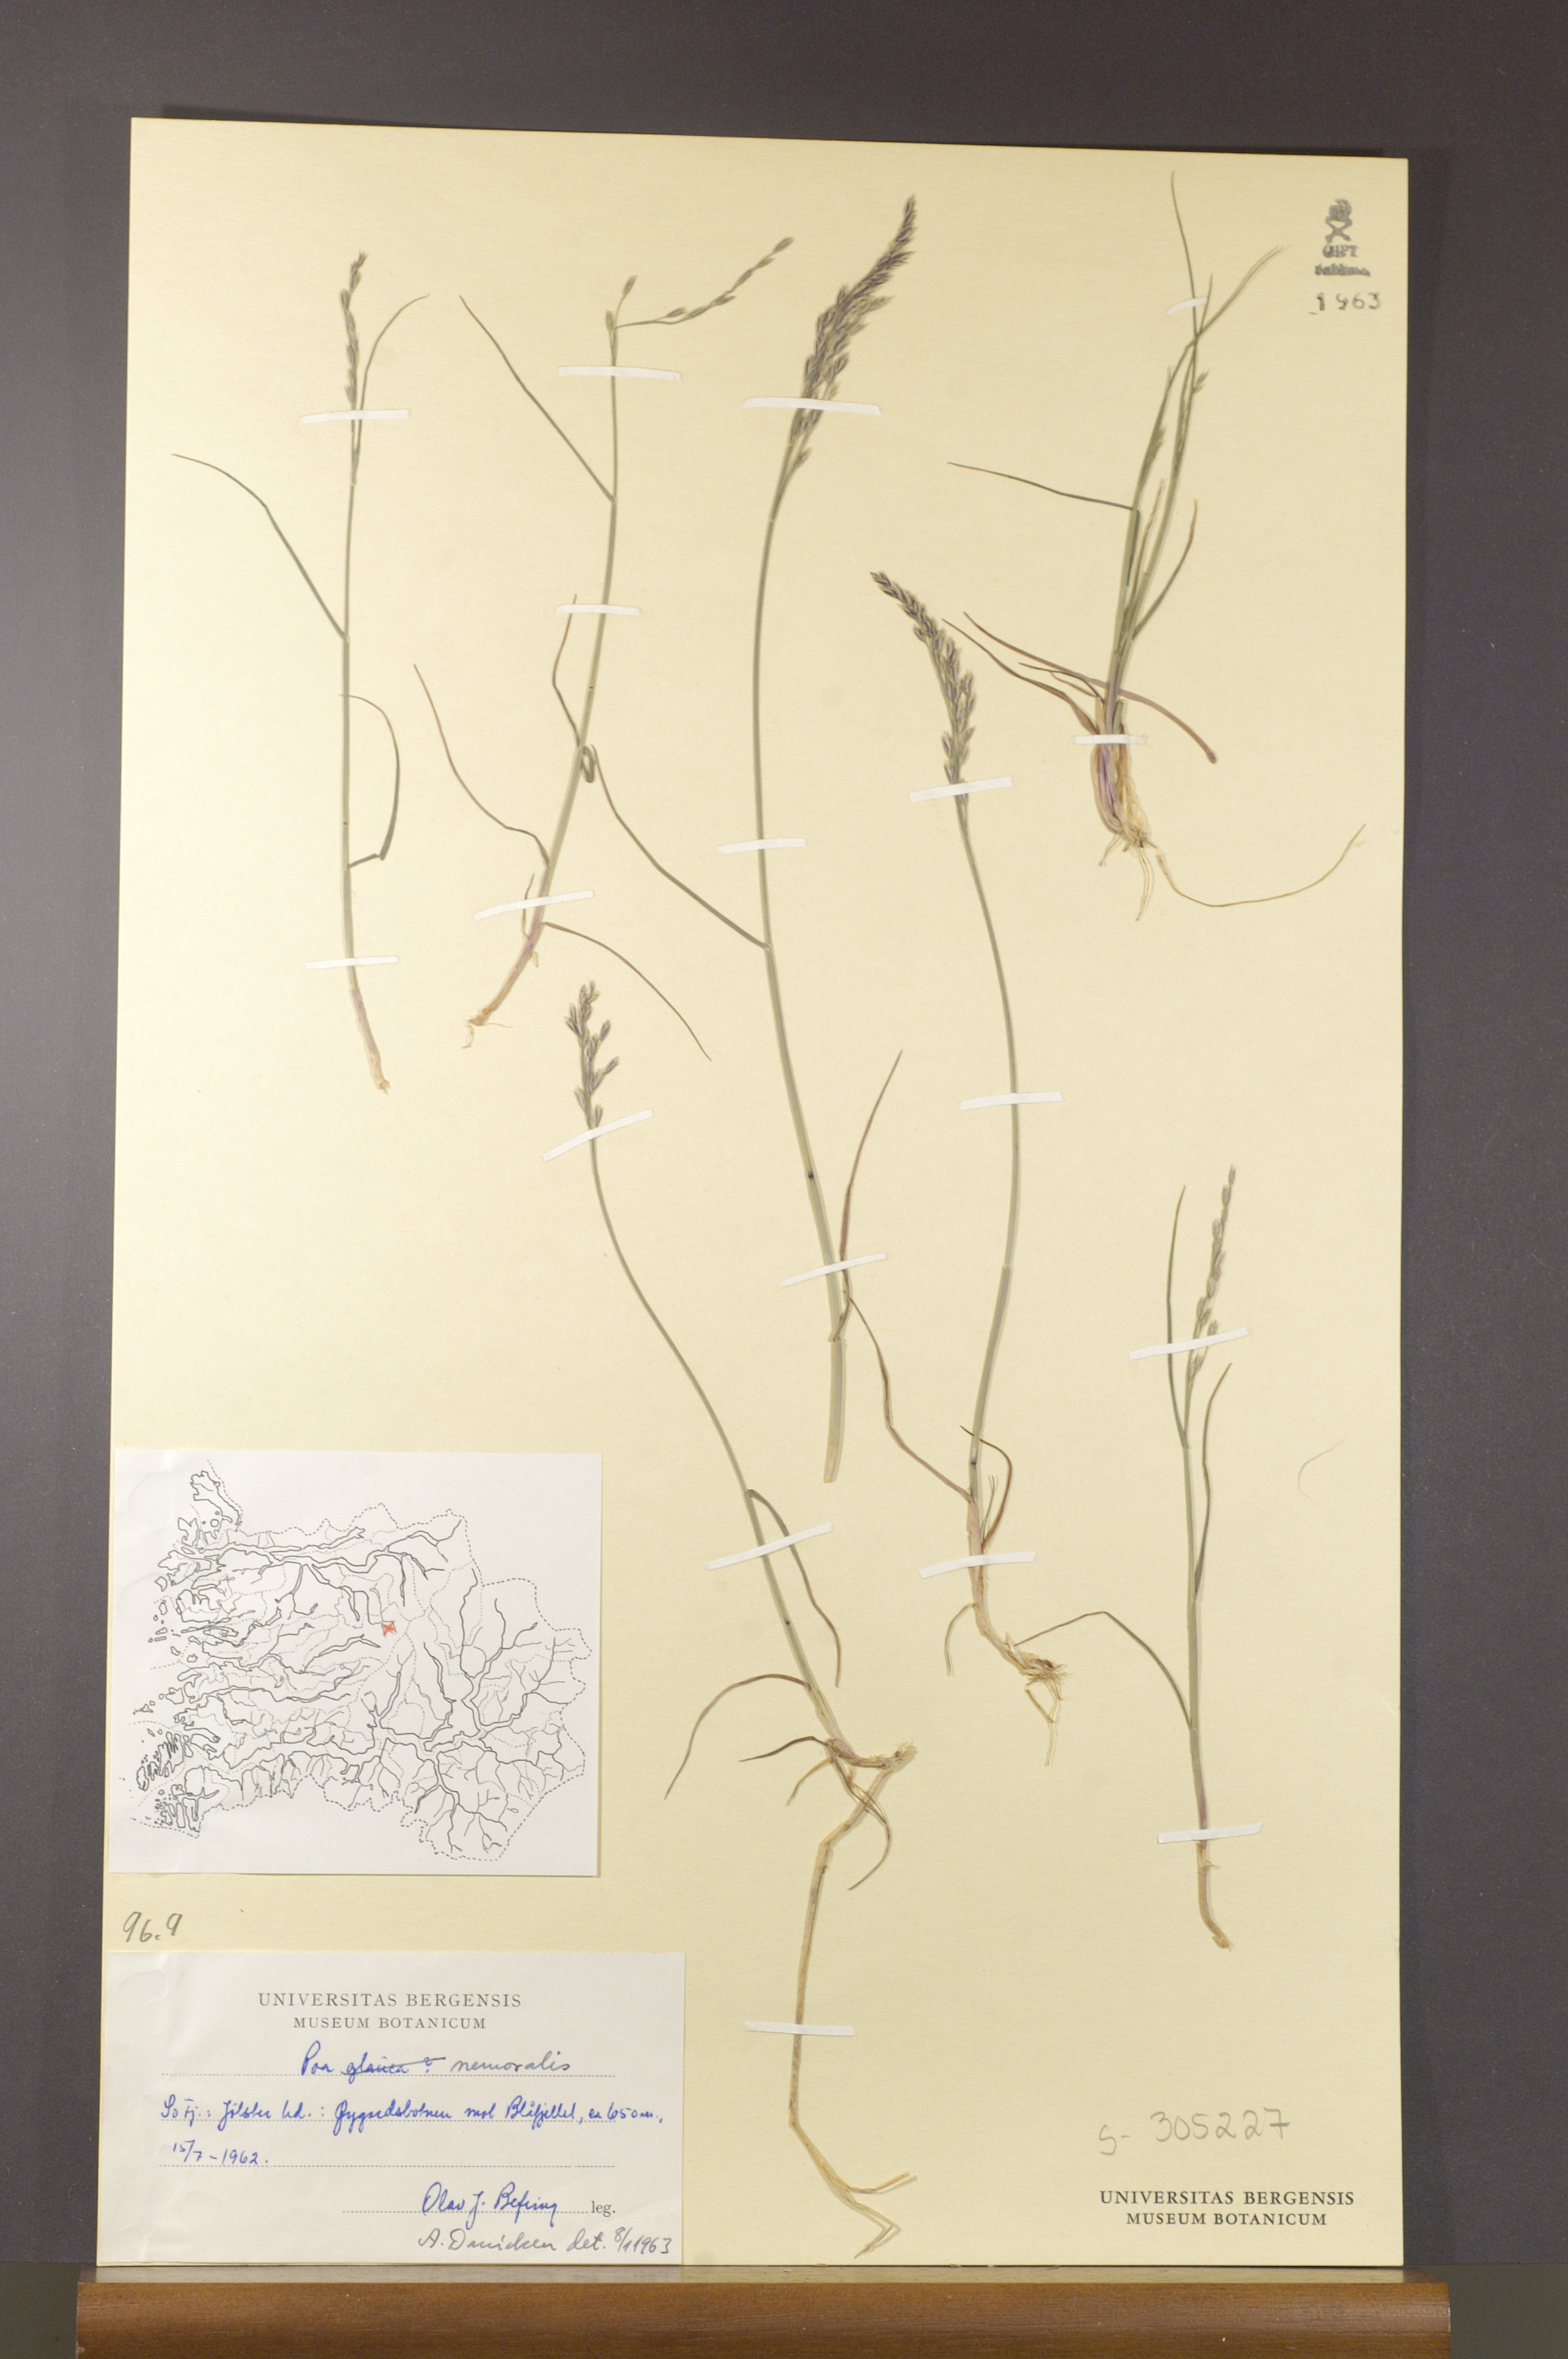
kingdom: Plantae
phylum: Tracheophyta
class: Liliopsida
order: Poales
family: Poaceae
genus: Poa
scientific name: Poa nemoralis
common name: Wood bluegrass
